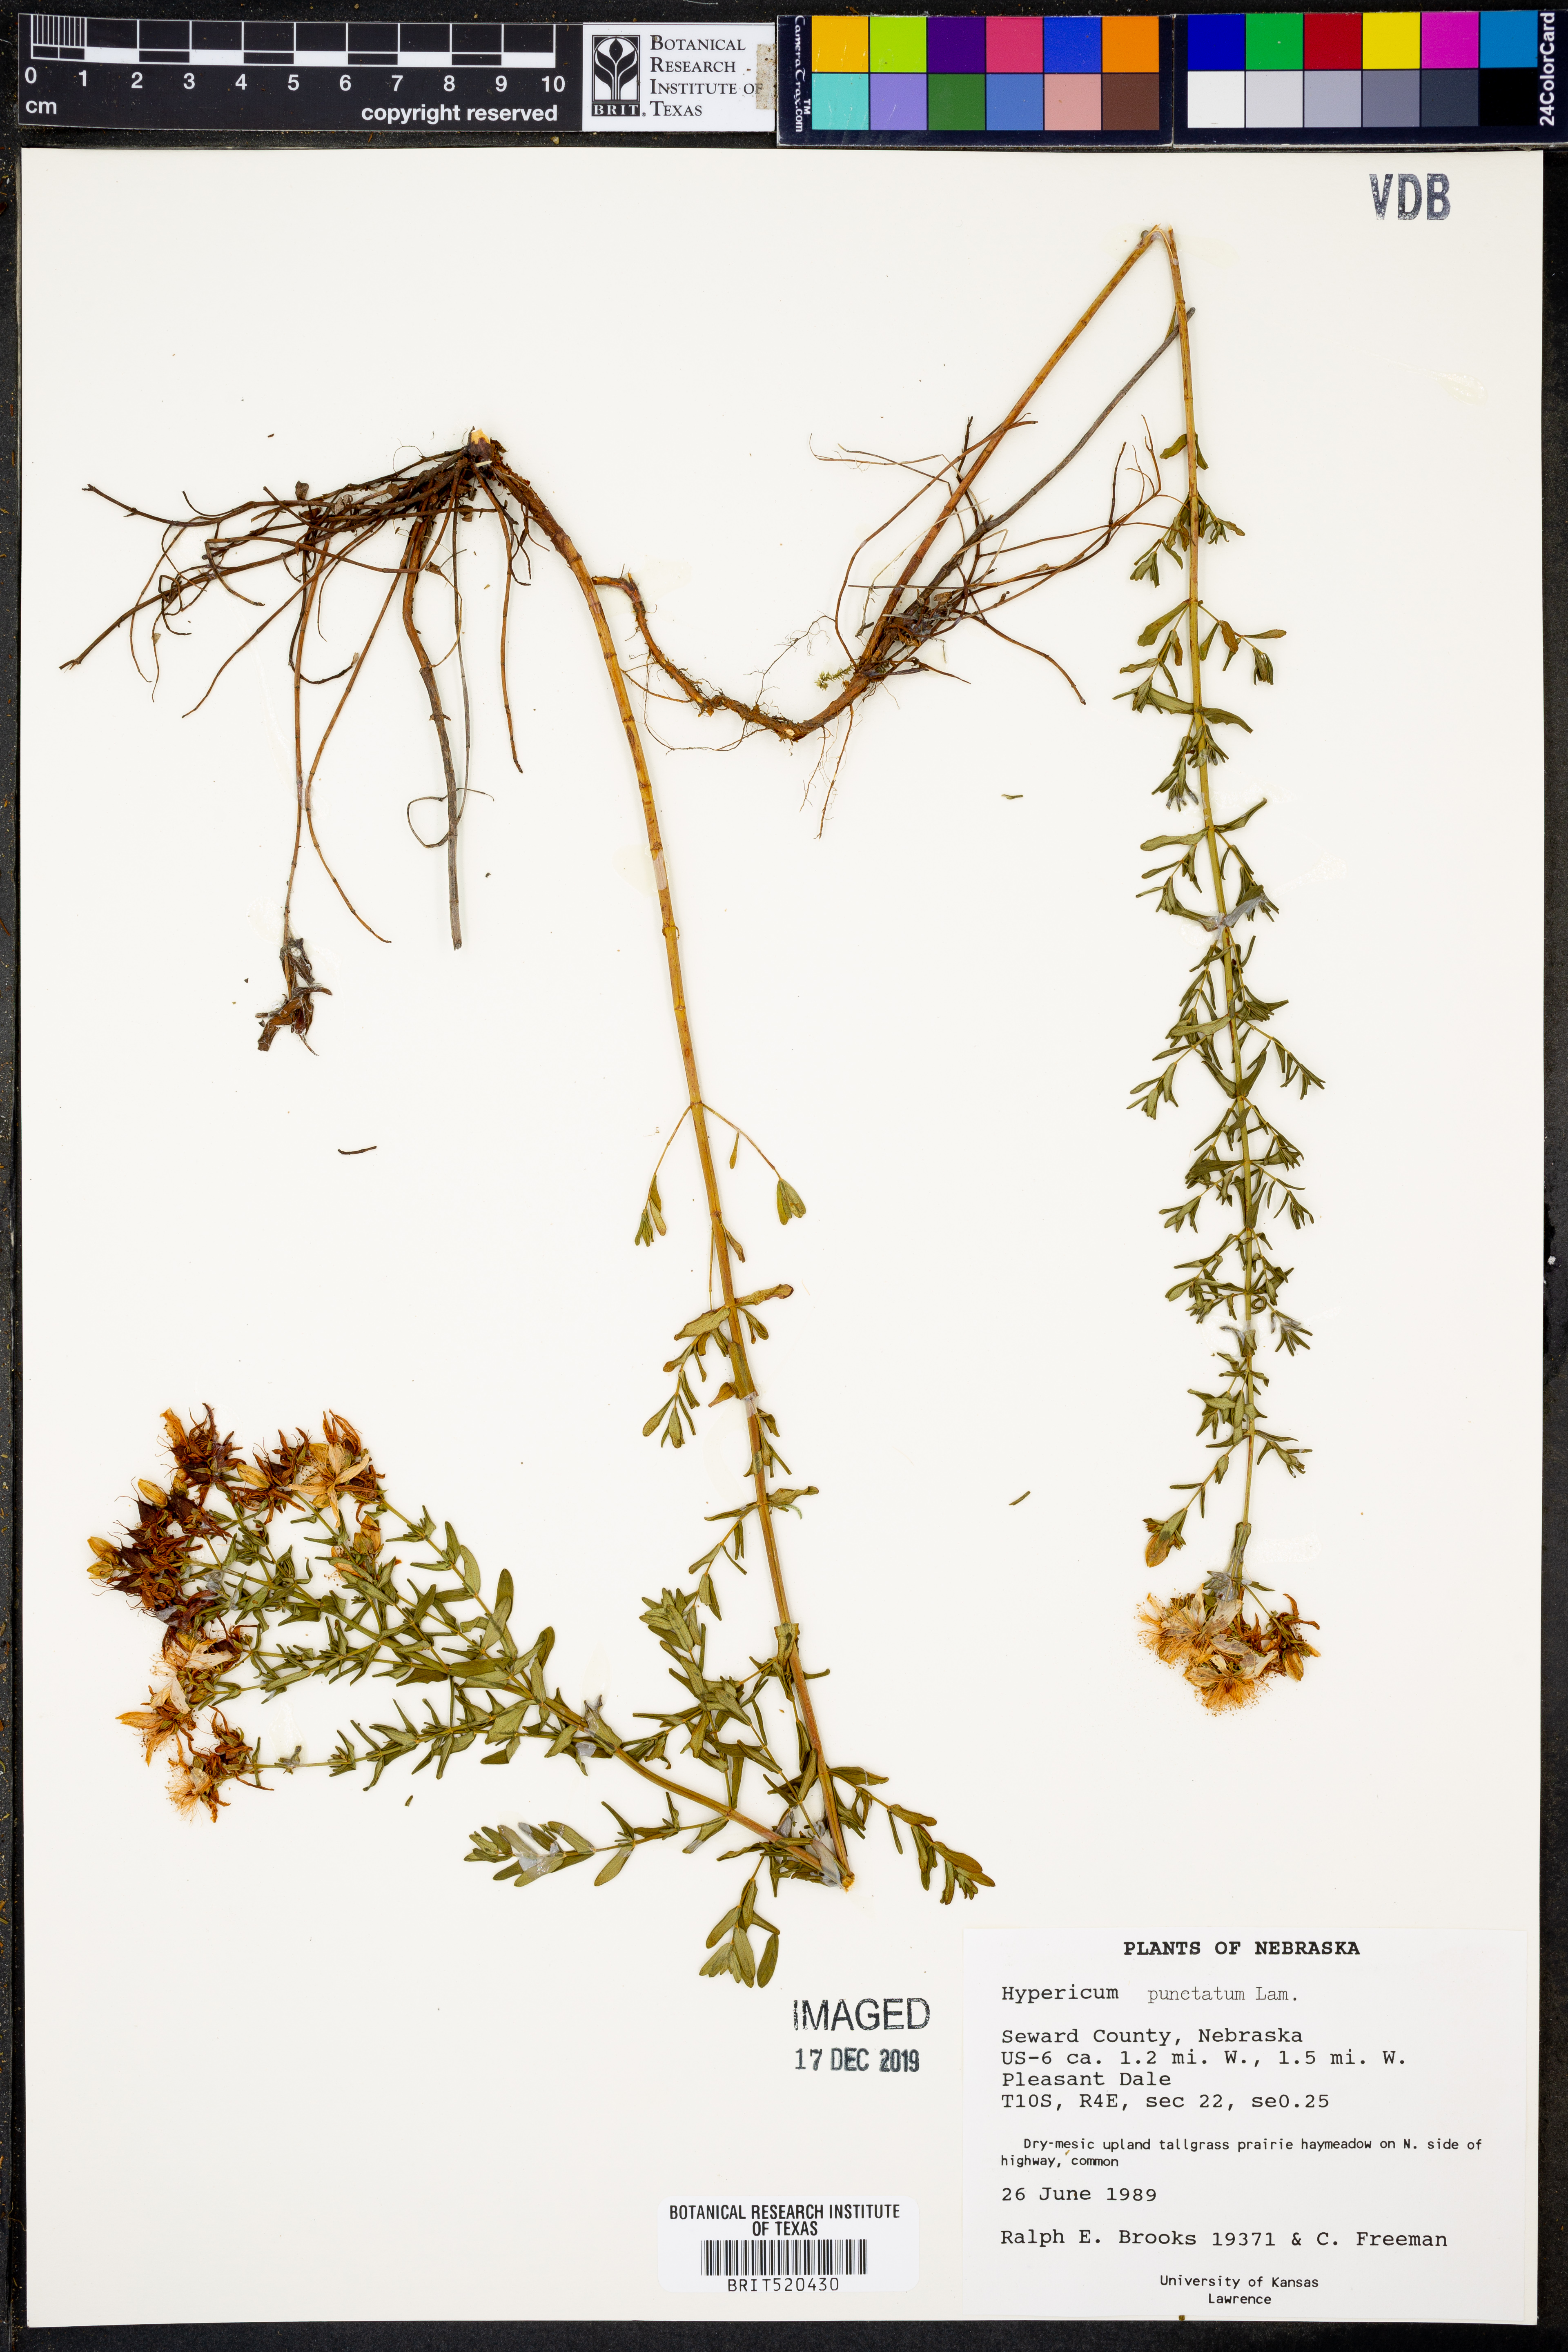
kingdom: Plantae
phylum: Tracheophyta
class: Magnoliopsida
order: Malpighiales
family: Hypericaceae
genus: Hypericum
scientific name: Hypericum punctatum
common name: Spotted st. john's-wort
